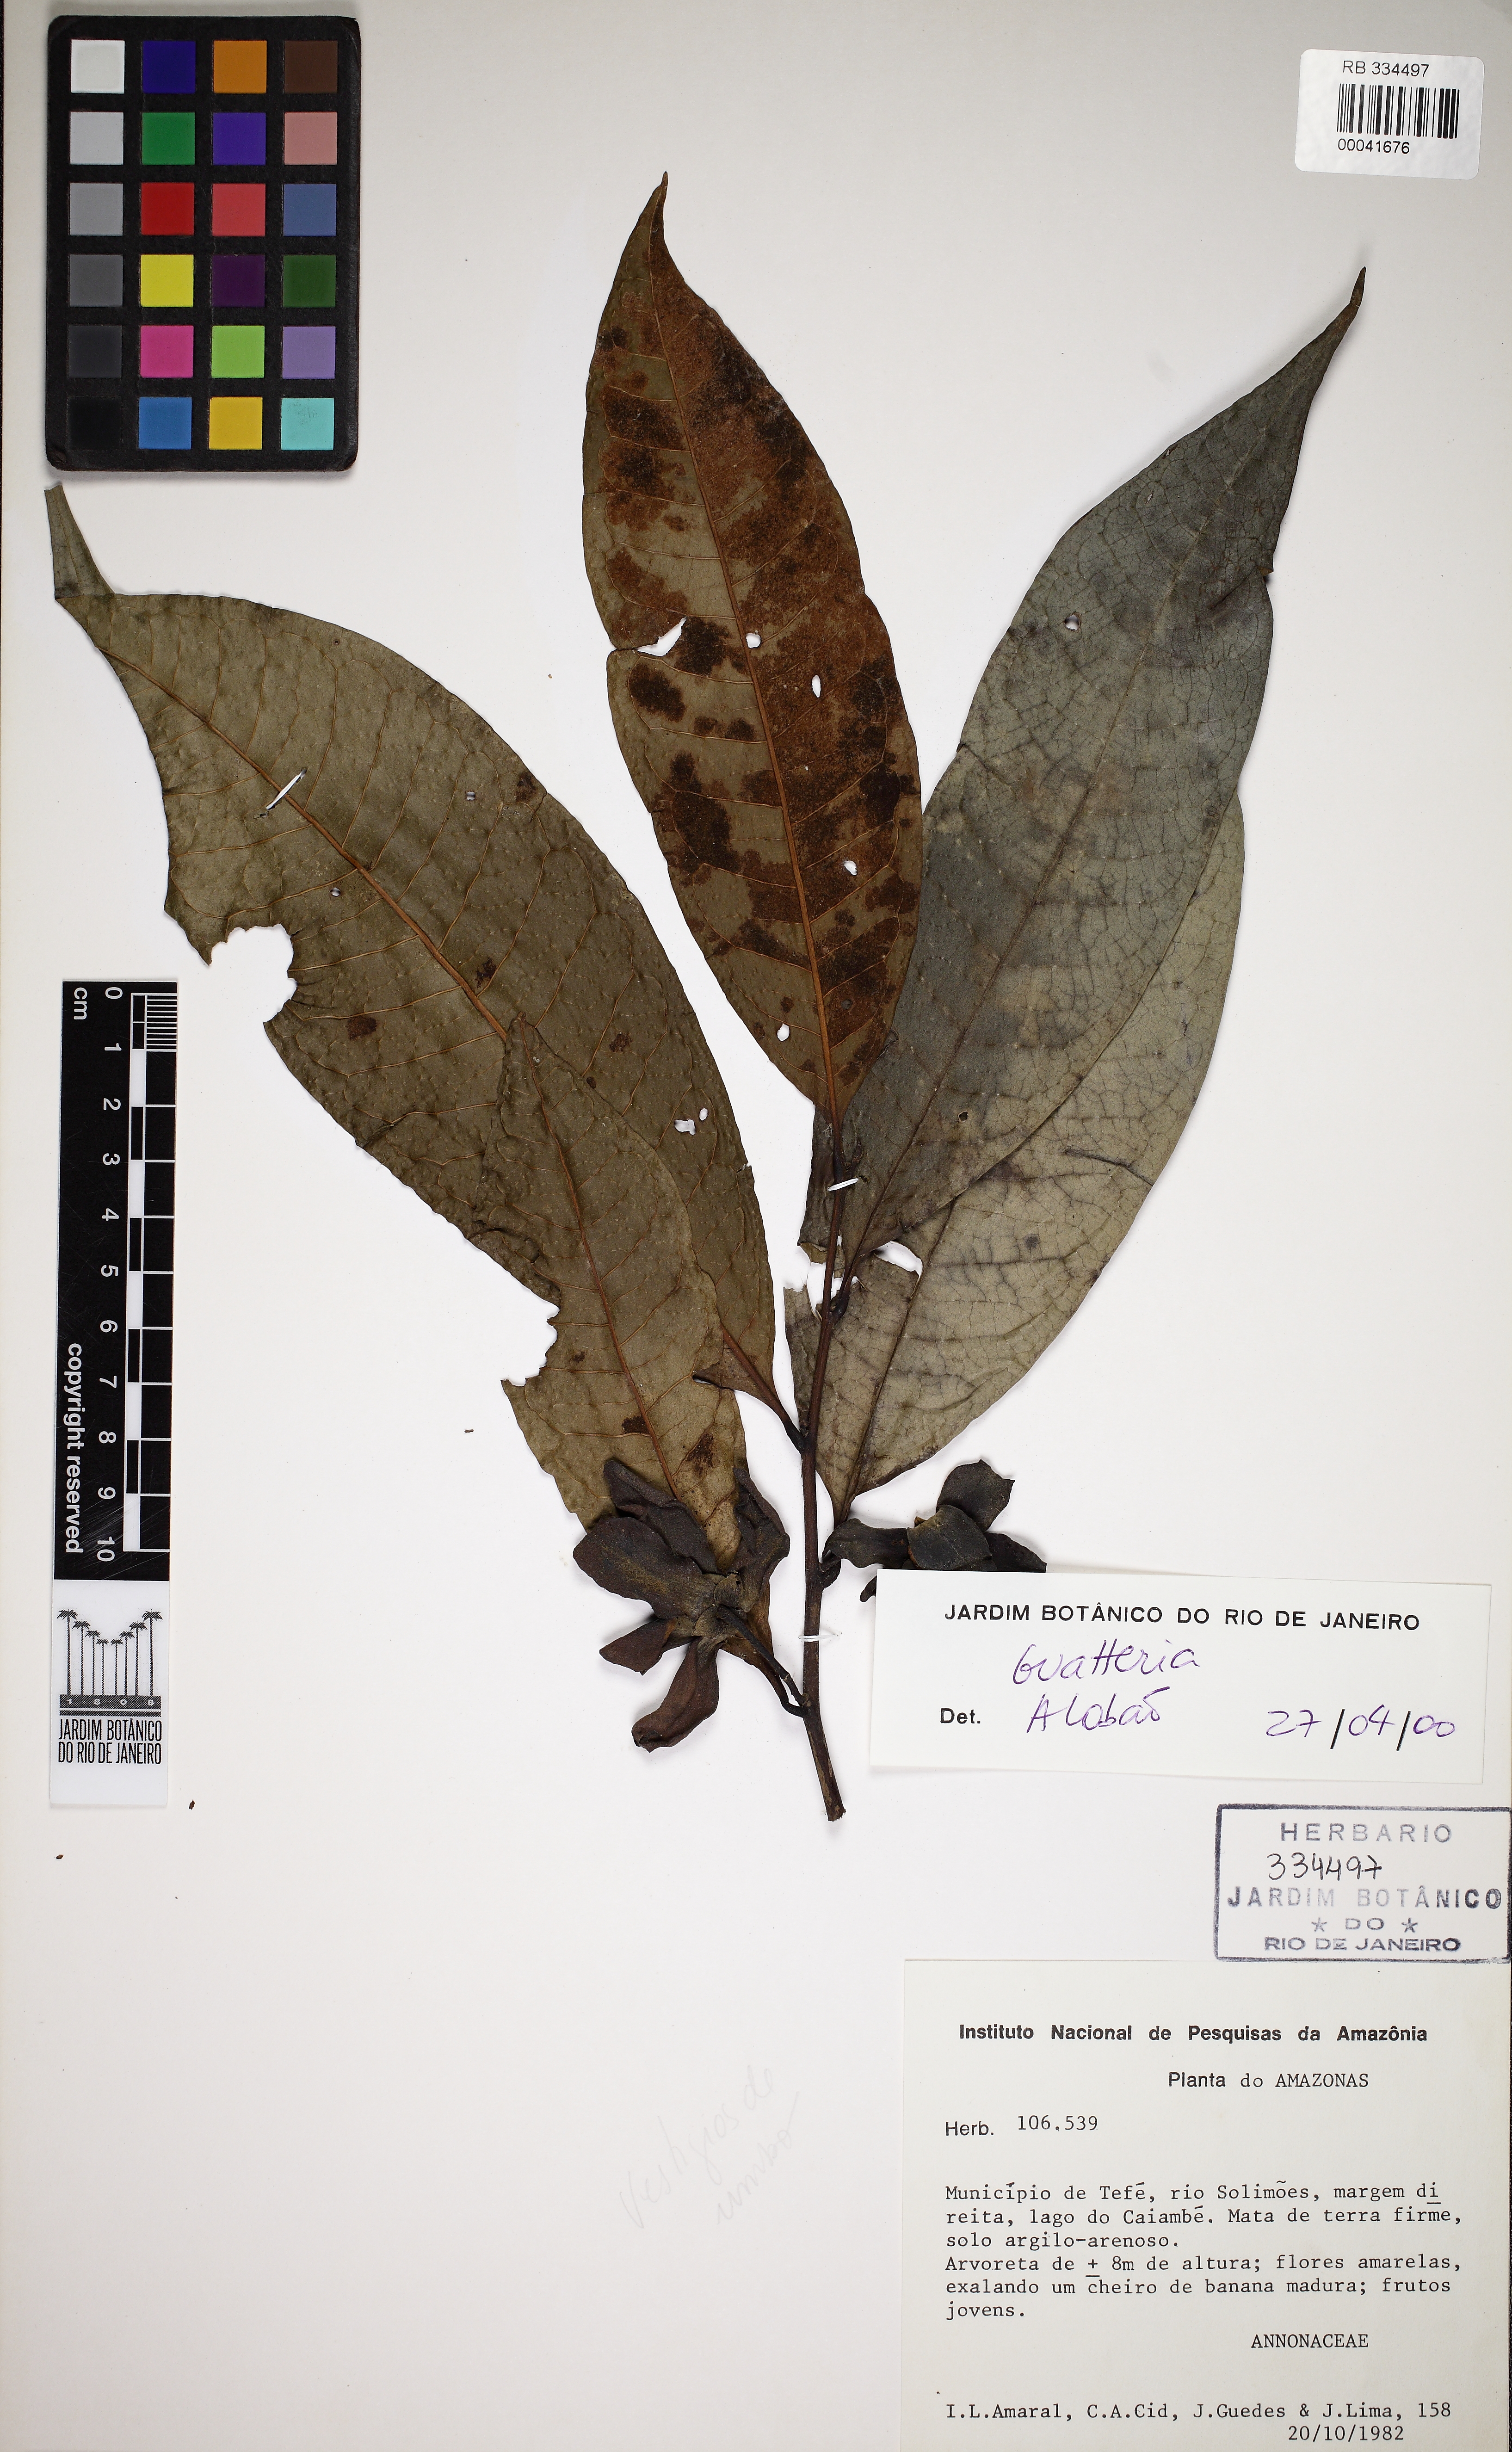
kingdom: Plantae
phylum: Tracheophyta
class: Magnoliopsida
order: Magnoliales
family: Annonaceae
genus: Guatteria
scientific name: Guatteria inundata
